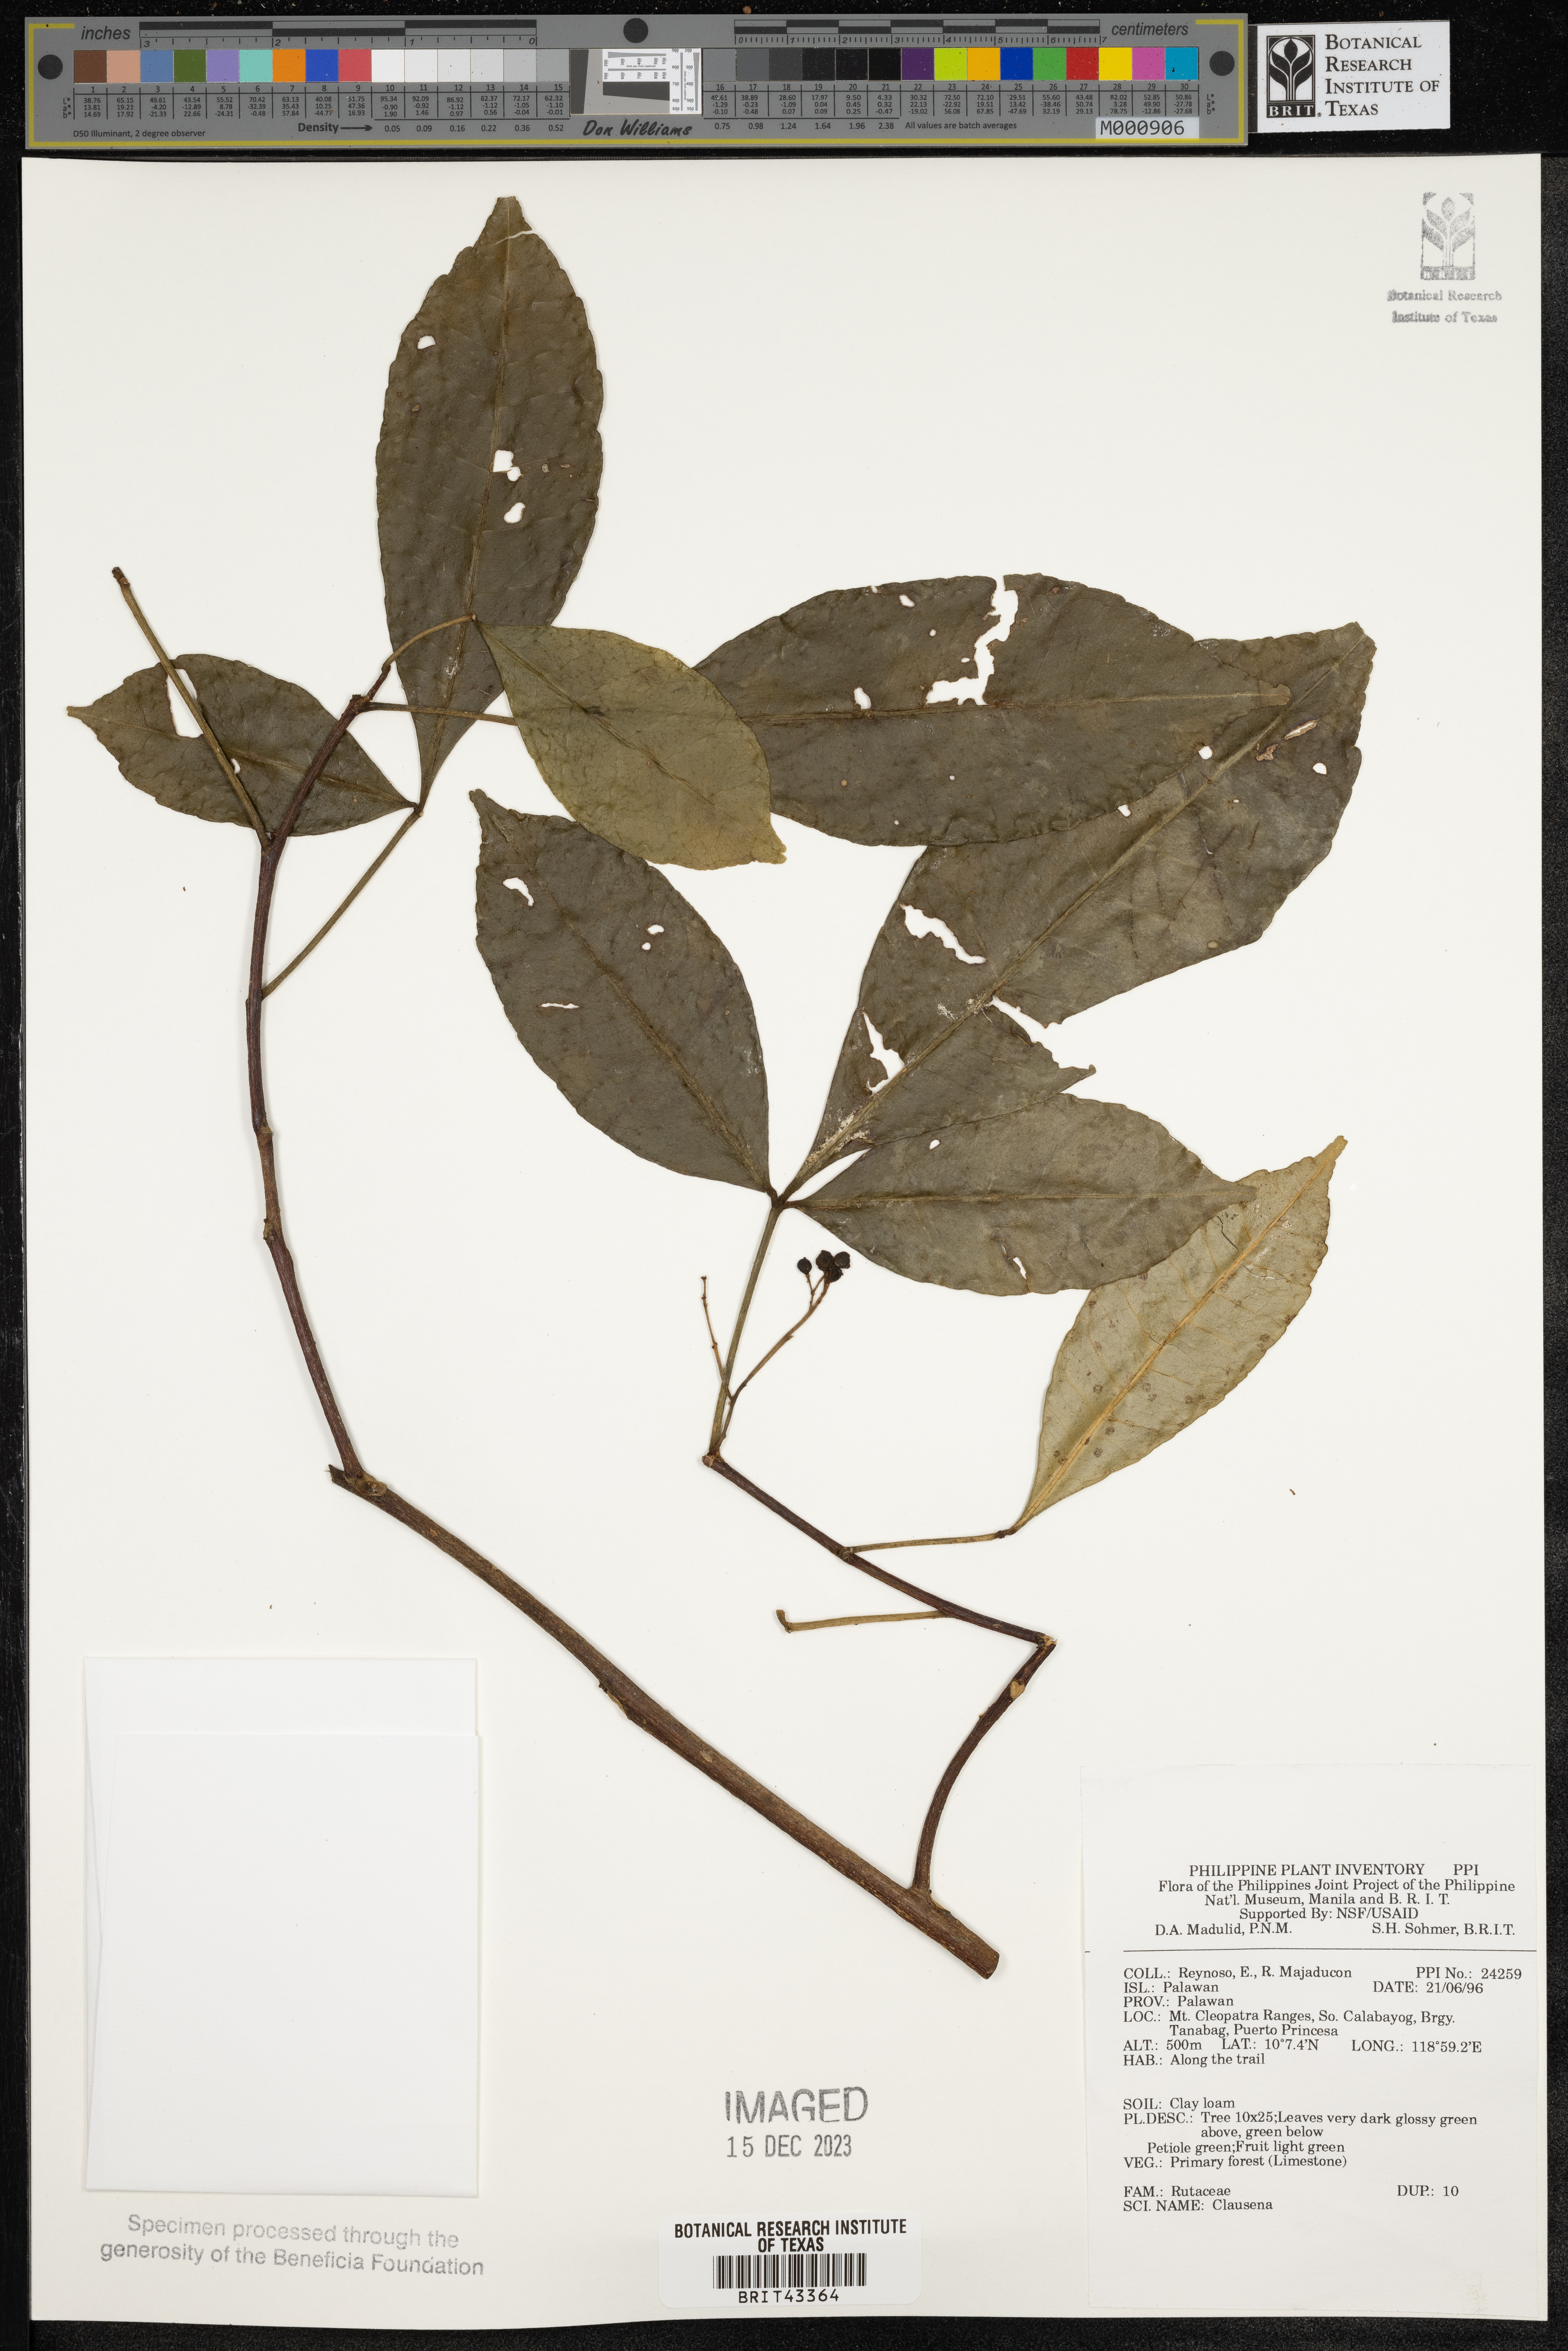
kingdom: Plantae
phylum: Tracheophyta
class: Magnoliopsida
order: Sapindales
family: Rutaceae
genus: Clausena
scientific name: Clausena
